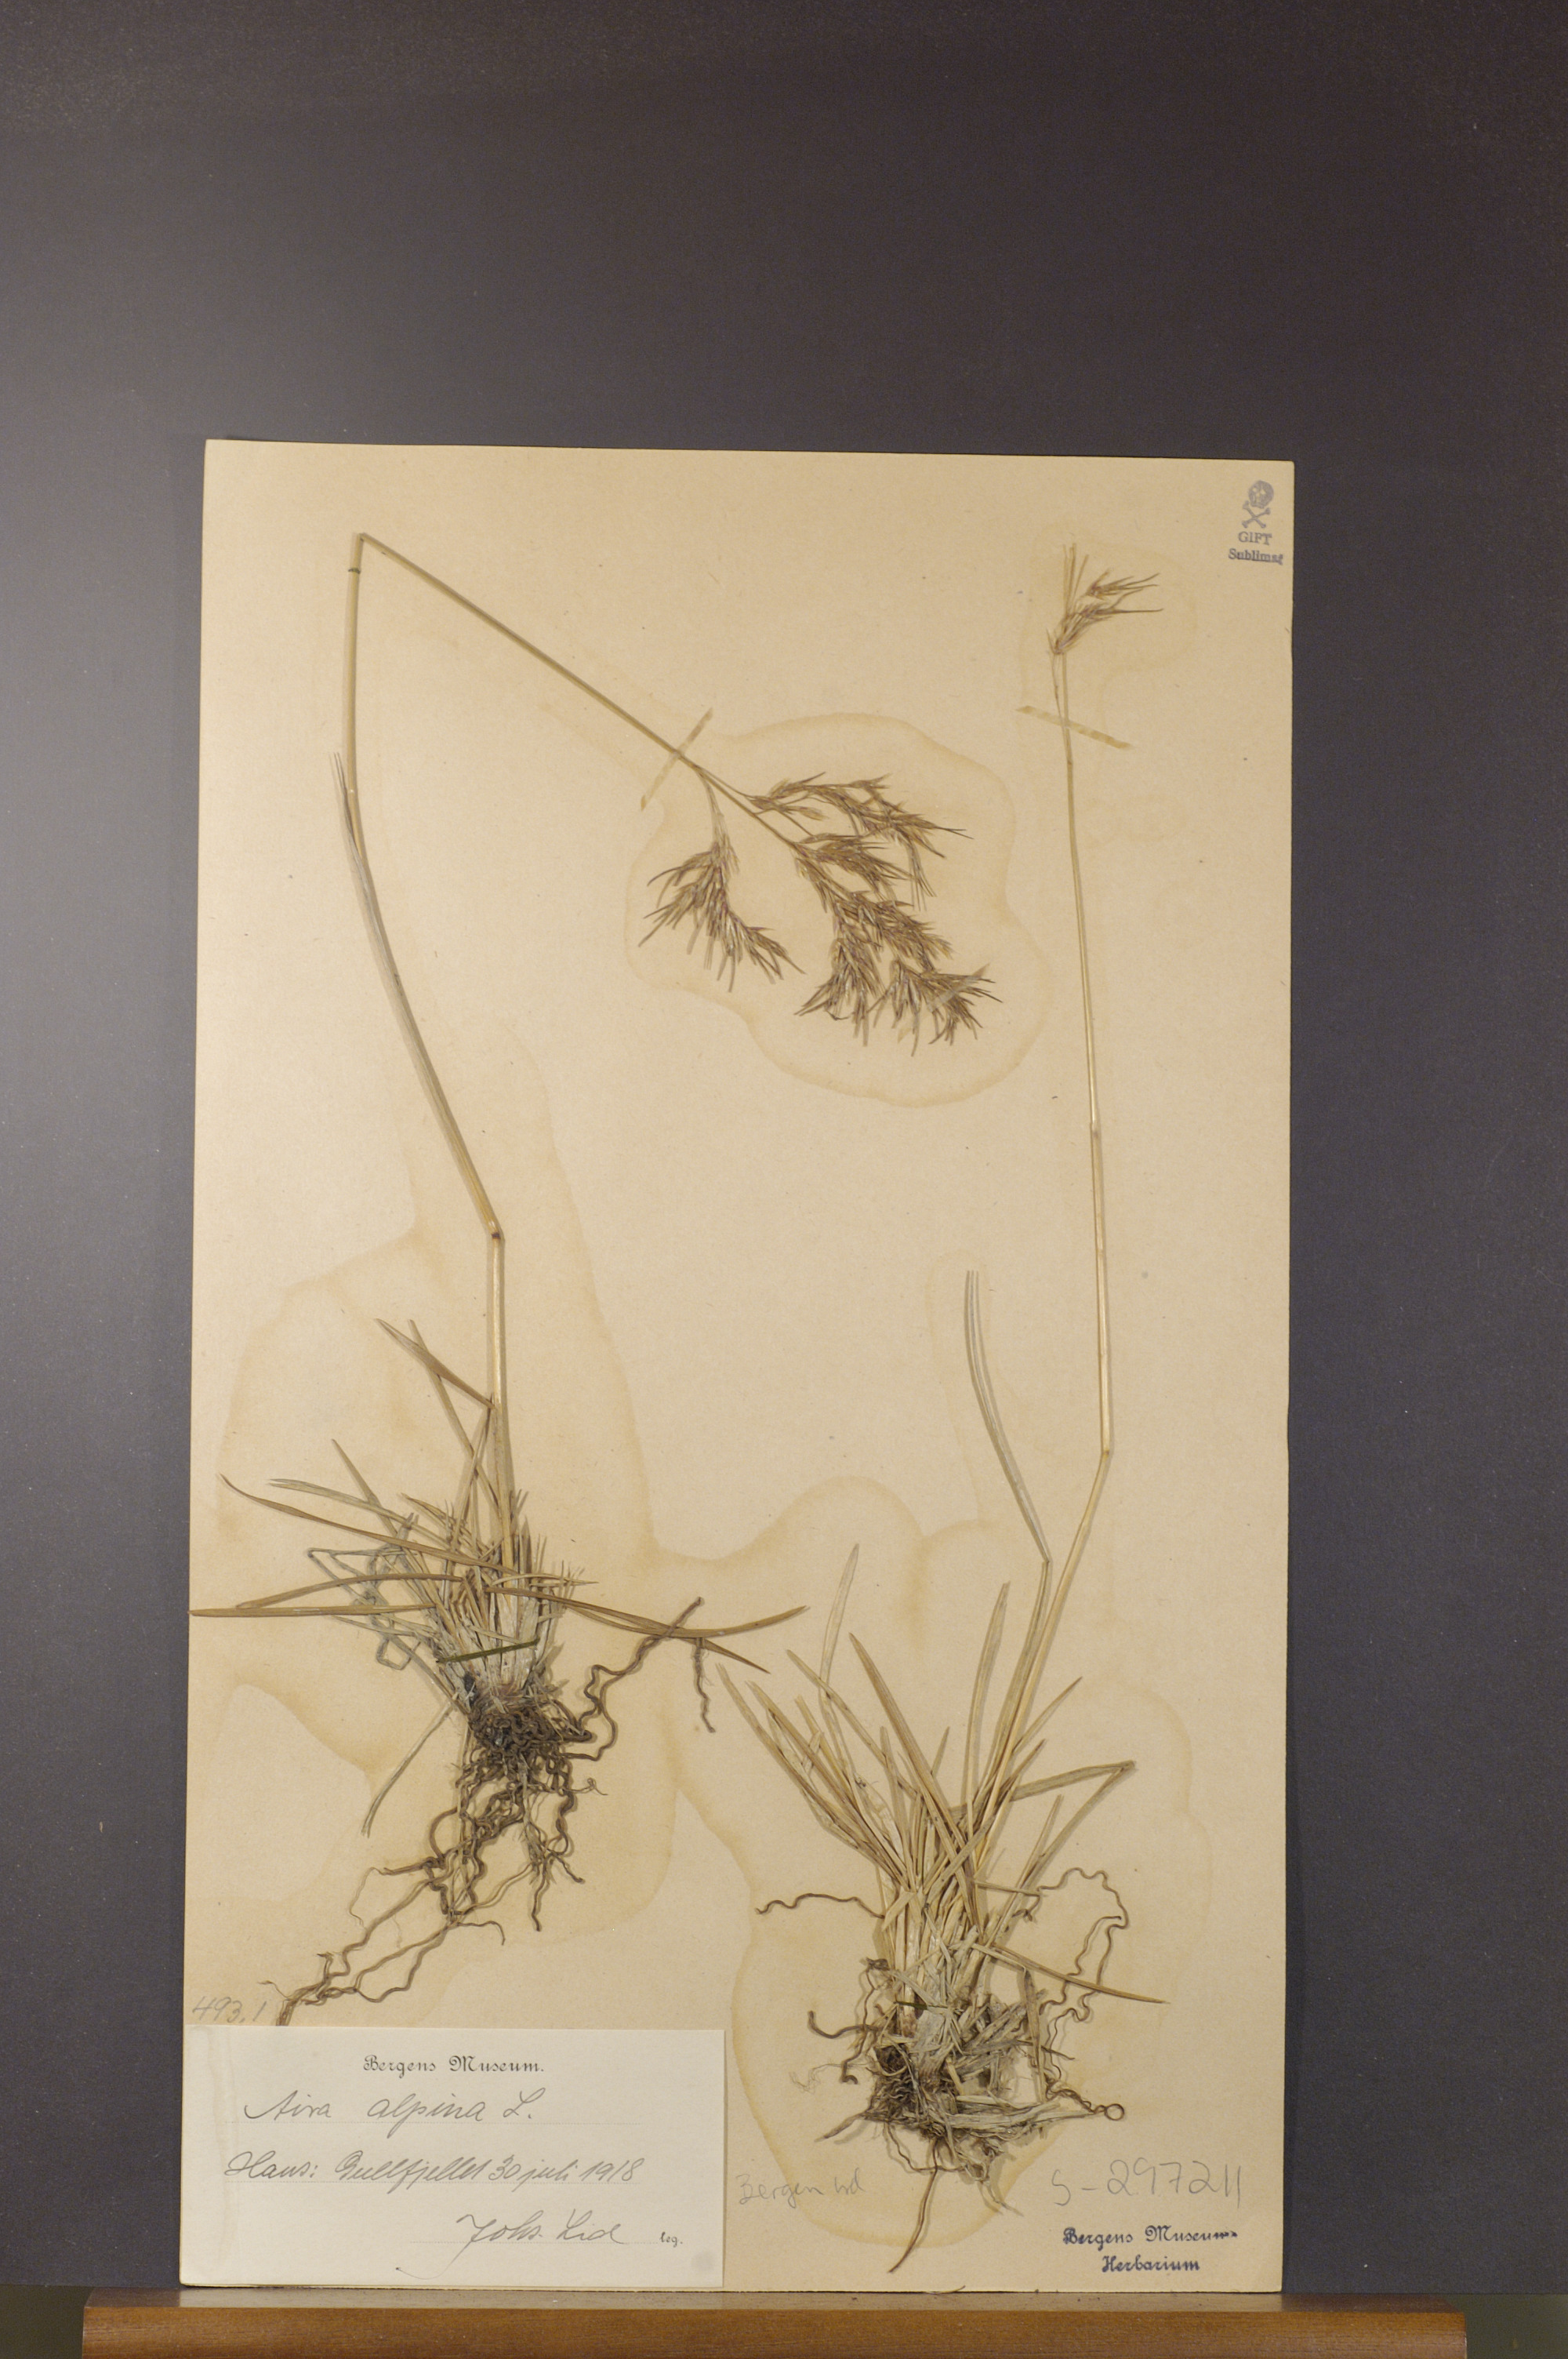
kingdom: Plantae
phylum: Tracheophyta
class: Liliopsida
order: Poales
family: Poaceae
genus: Deschampsia
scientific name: Deschampsia cespitosa
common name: Tufted hair-grass
